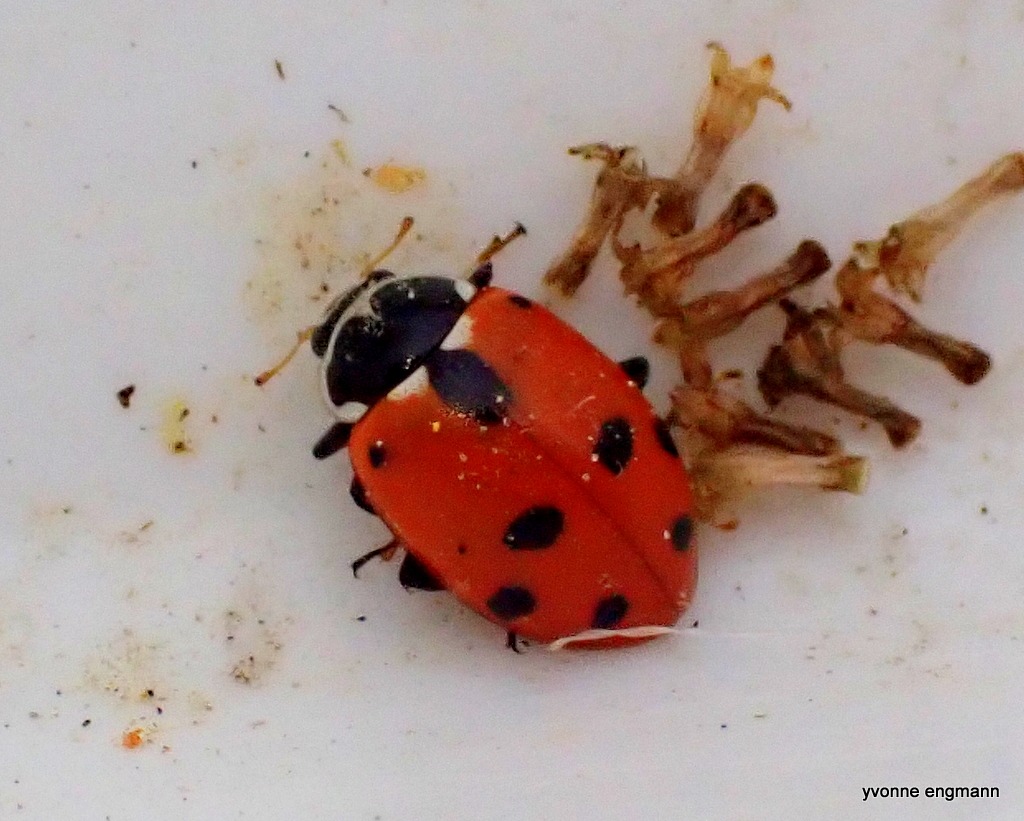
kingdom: Animalia
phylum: Arthropoda
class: Insecta
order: Coleoptera
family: Coccinellidae
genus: Hippodamia
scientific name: Hippodamia variegata
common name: Adonis' mariehøne
